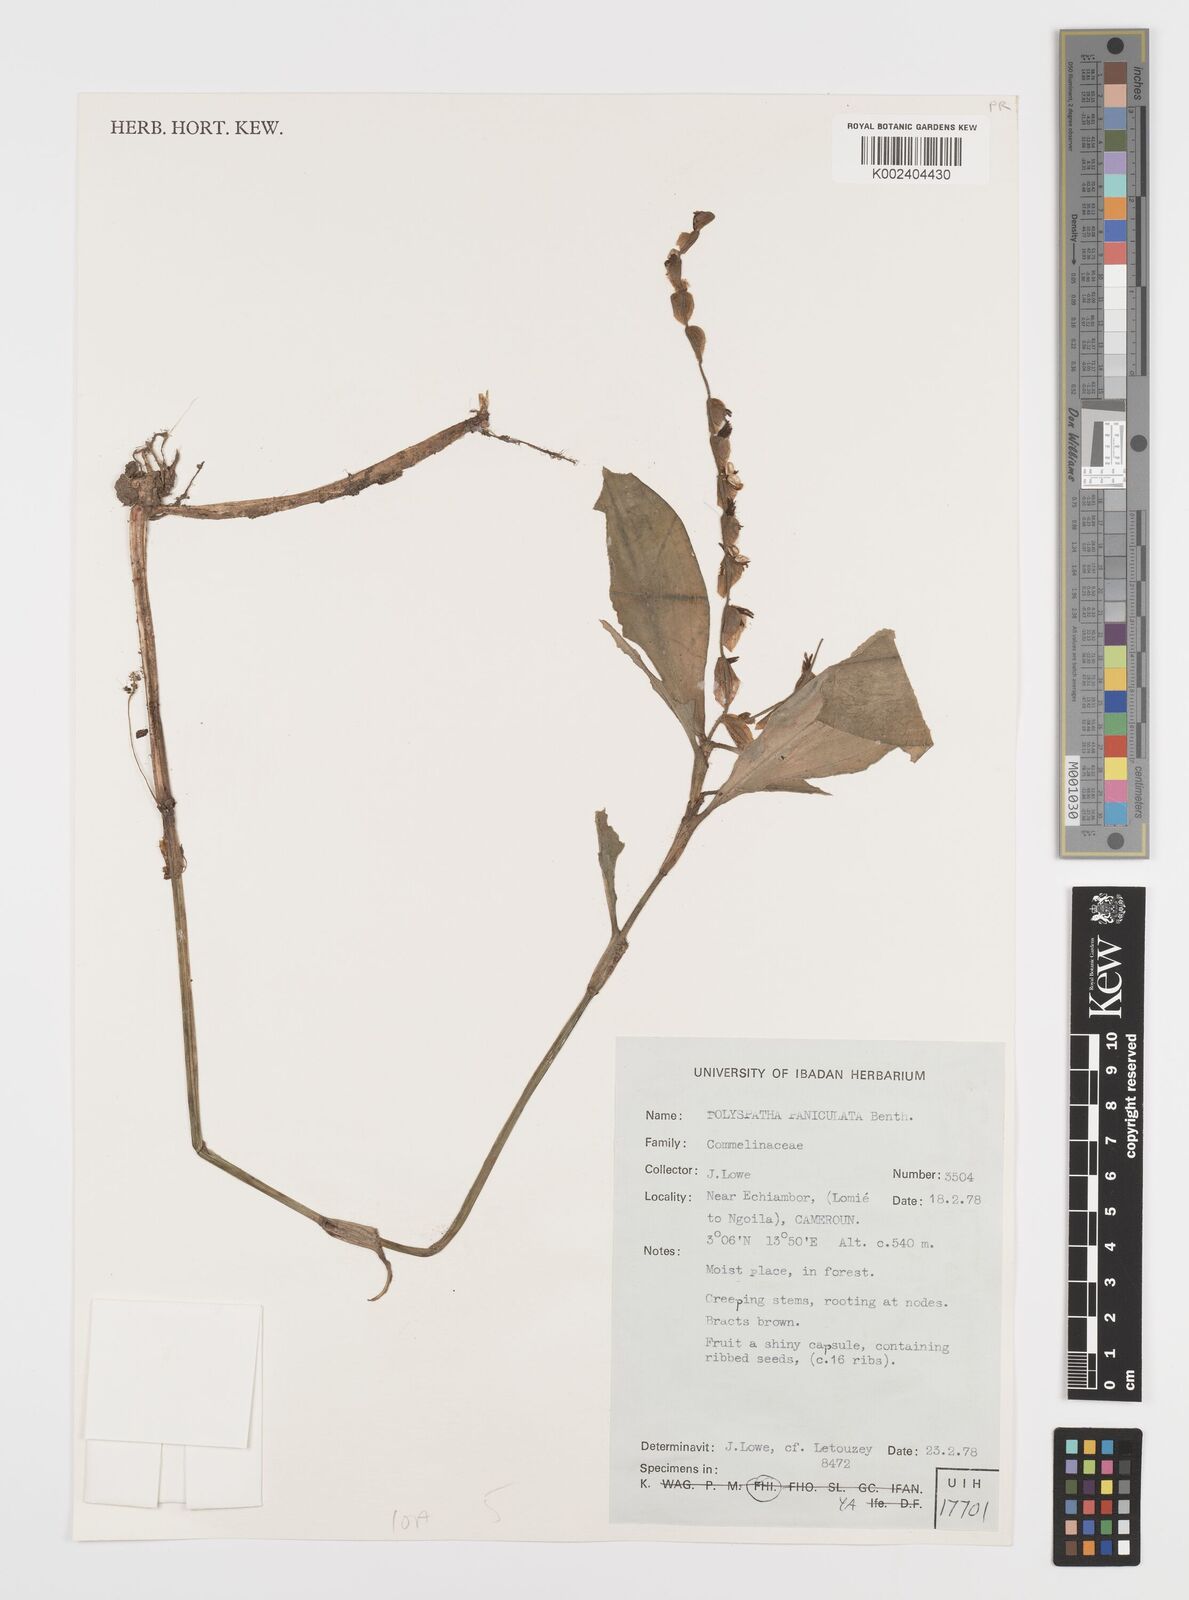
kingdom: Plantae
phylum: Tracheophyta
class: Liliopsida
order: Commelinales
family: Commelinaceae
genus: Polyspatha
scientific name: Polyspatha paniculata
